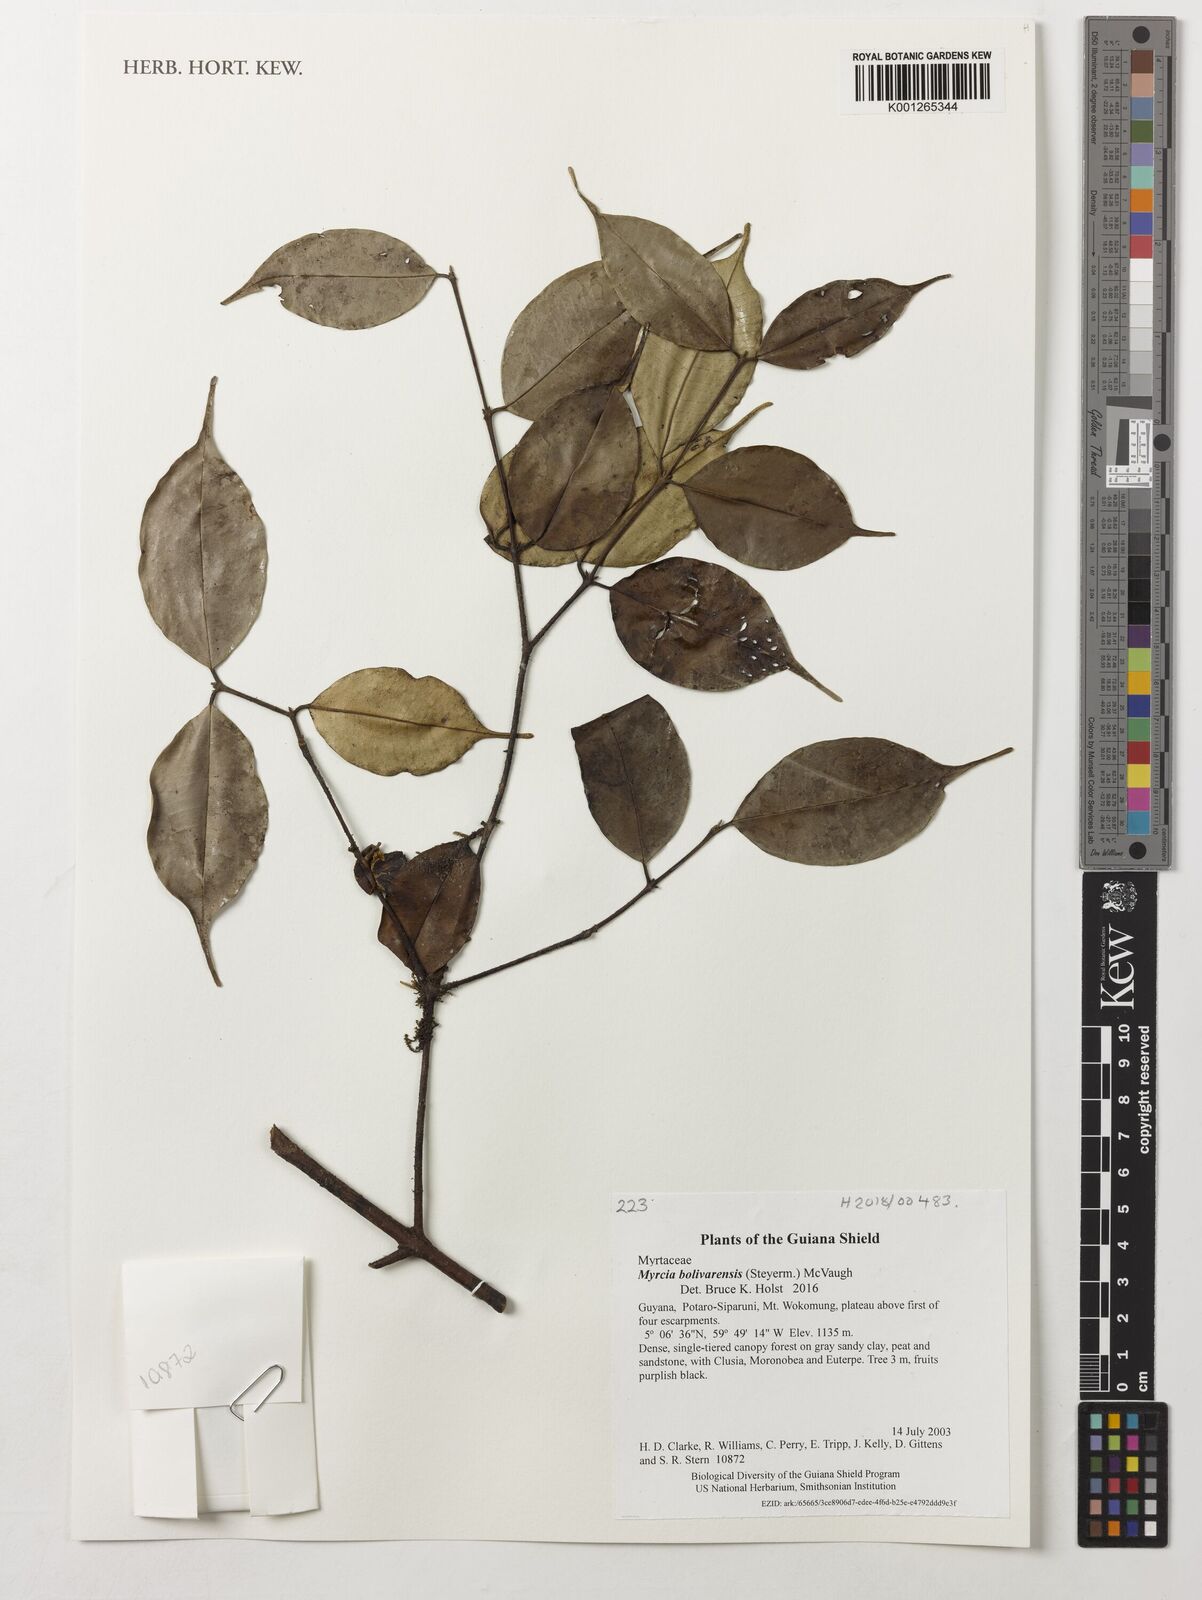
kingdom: Plantae
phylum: Tracheophyta
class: Magnoliopsida
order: Myrtales
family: Myrtaceae
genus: Myrcia
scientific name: Myrcia bolivarensis
